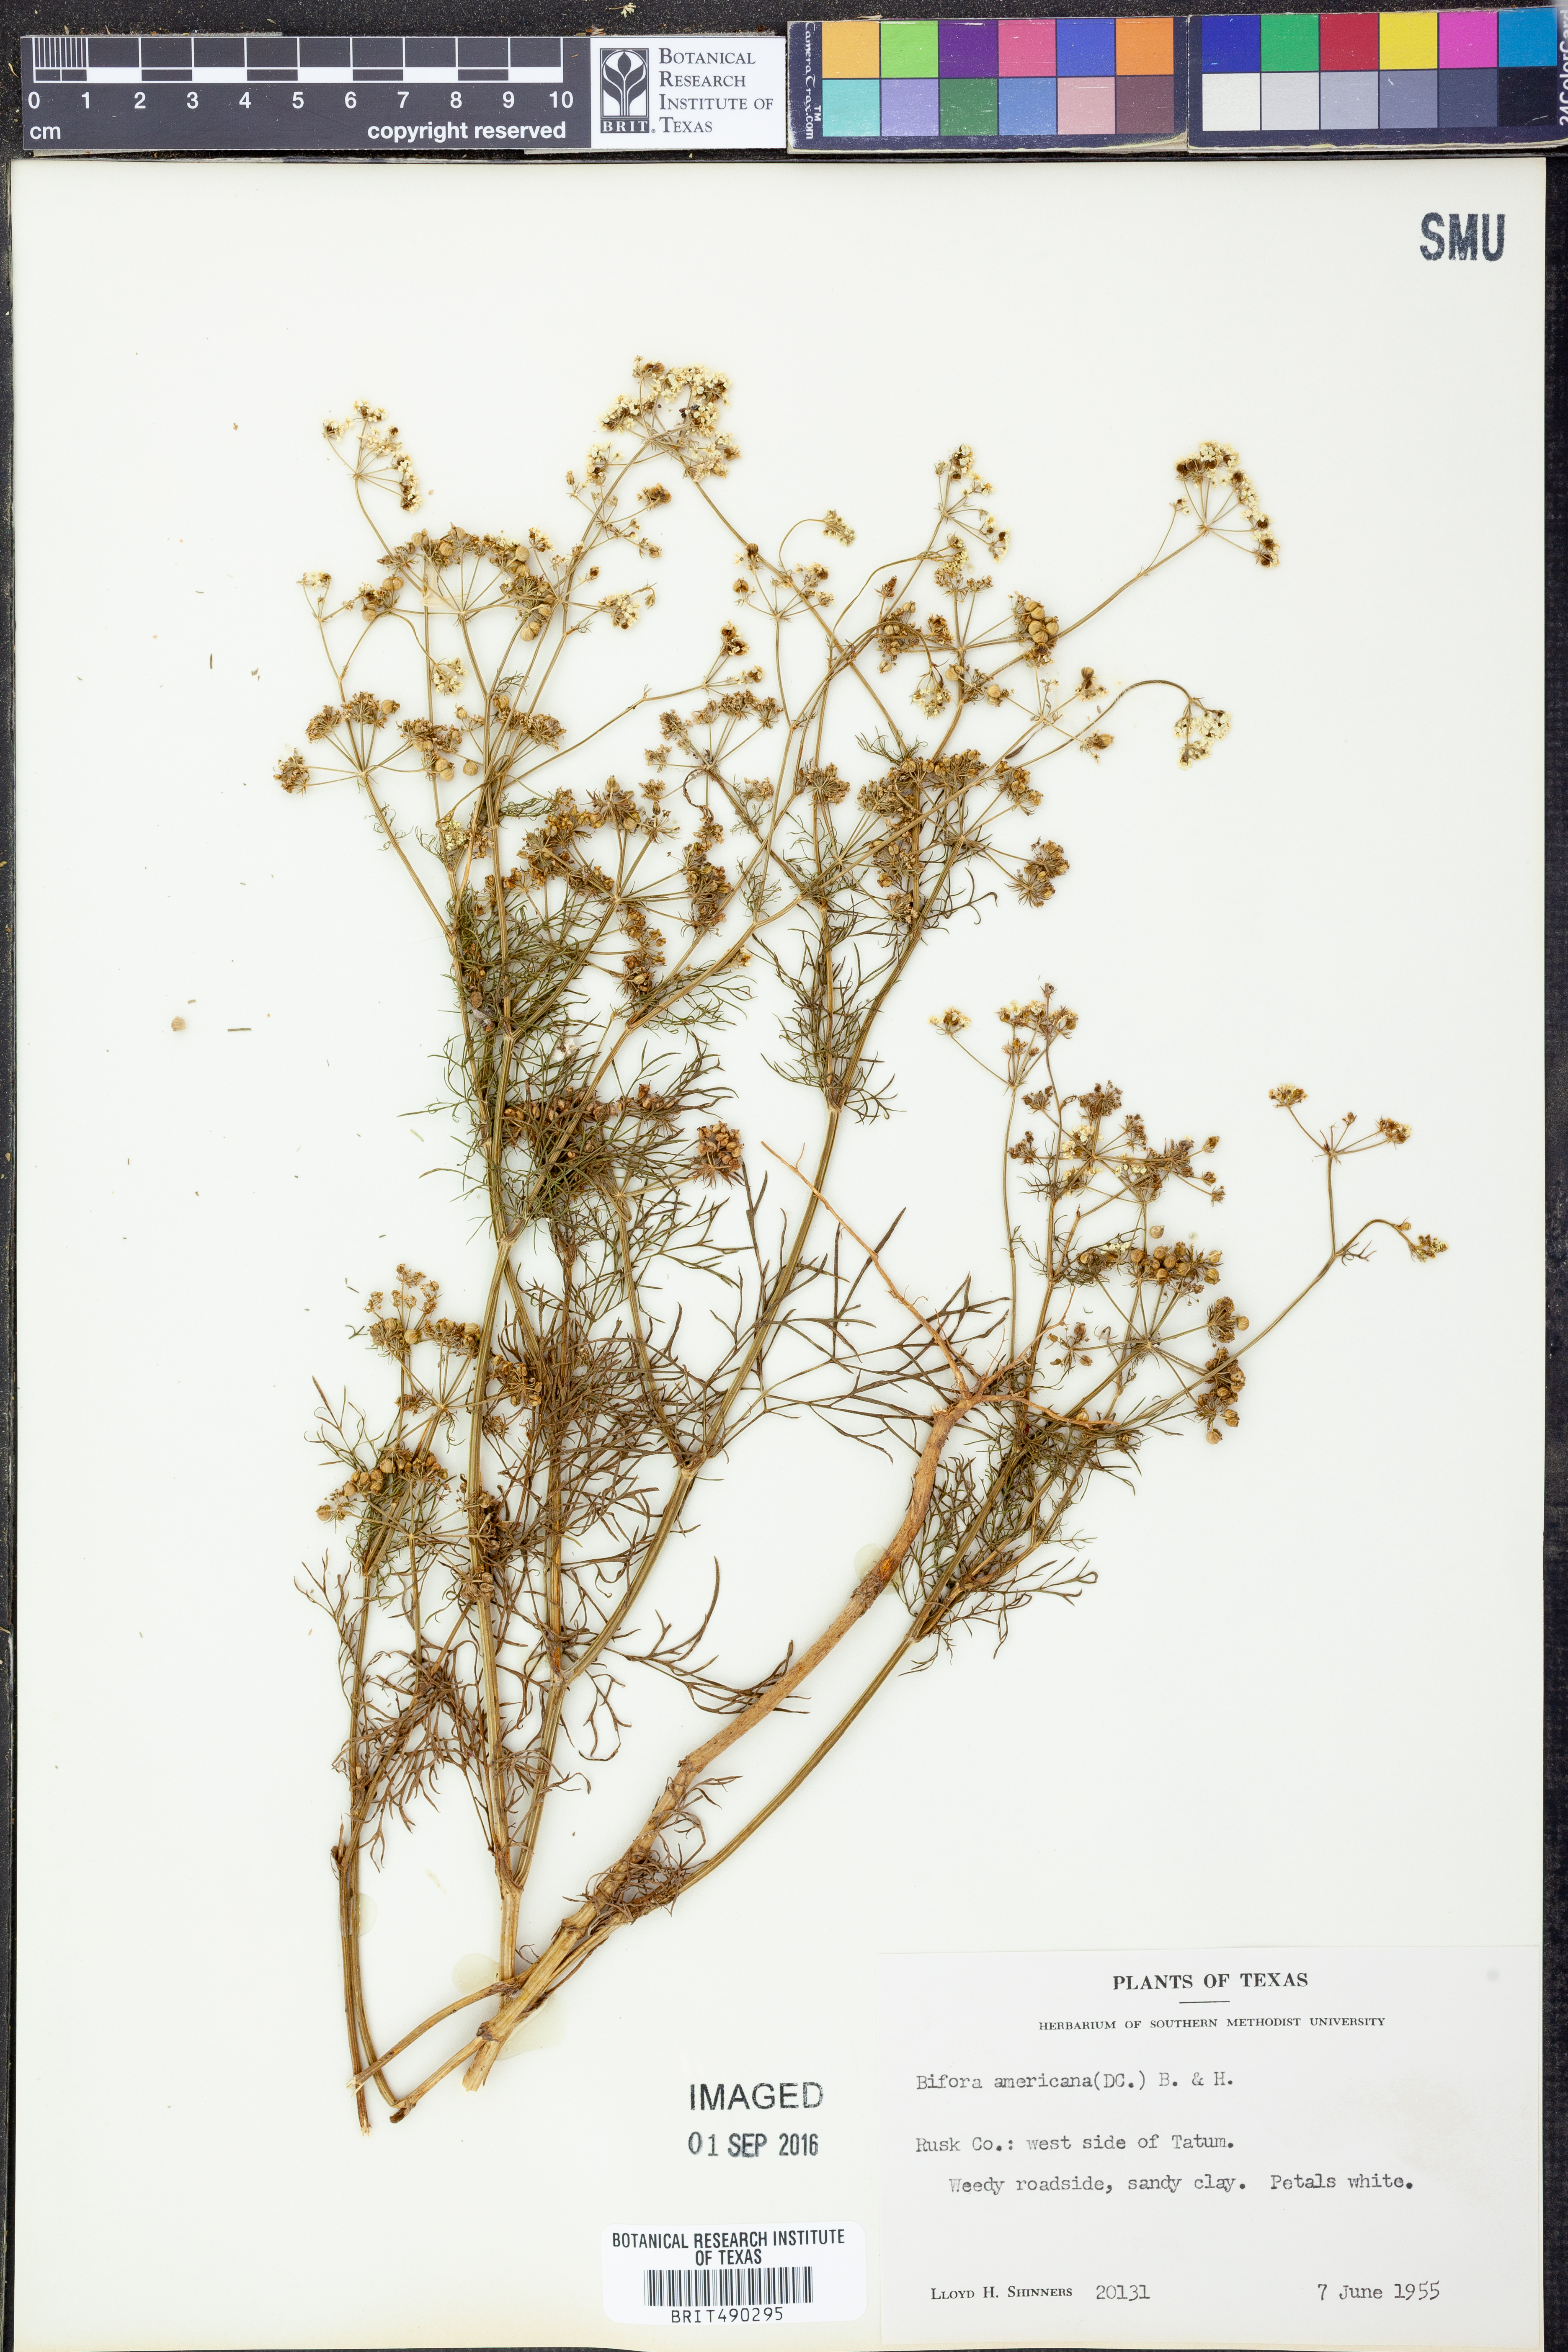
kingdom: Plantae
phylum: Tracheophyta
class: Magnoliopsida
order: Apiales
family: Apiaceae
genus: Atrema
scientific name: Atrema americanum
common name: Prairie-bishop
